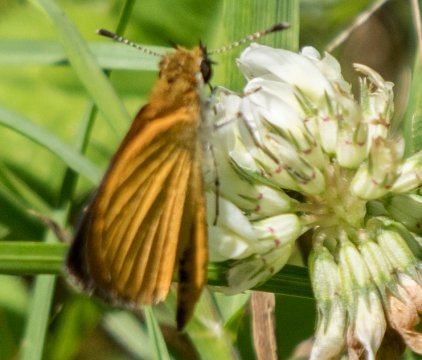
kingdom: Animalia
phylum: Arthropoda
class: Insecta
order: Lepidoptera
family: Hesperiidae
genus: Ancyloxypha
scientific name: Ancyloxypha numitor
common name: Least Skipper
